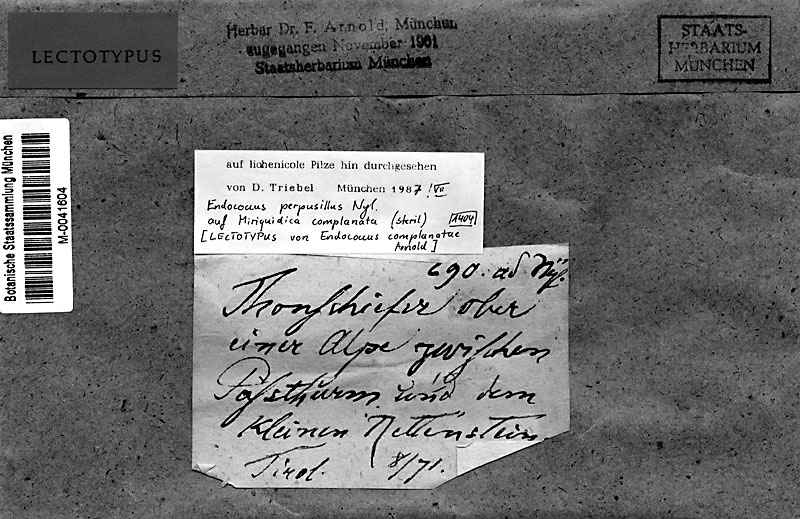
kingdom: Fungi
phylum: Ascomycota
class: Lecanoromycetes
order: Lecanorales
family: Lecanoraceae
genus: Miriquidica
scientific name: Miriquidica complanata
